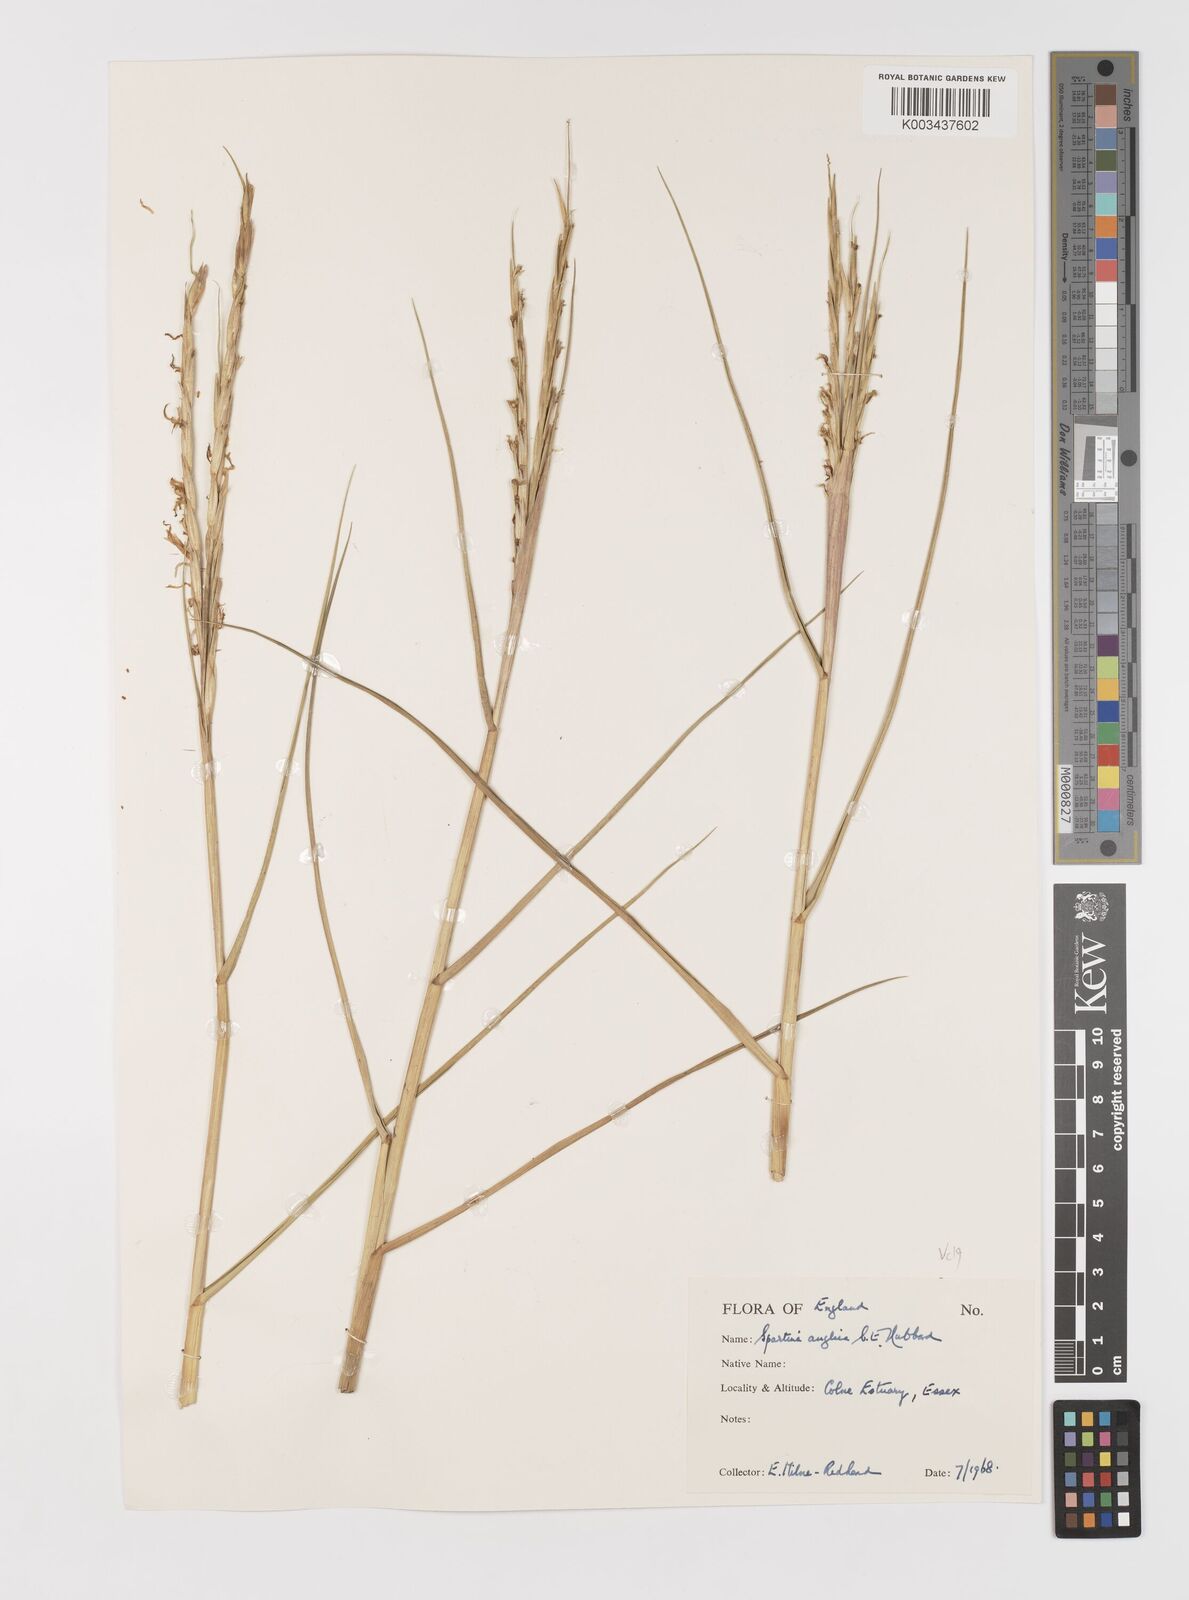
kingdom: Plantae
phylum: Tracheophyta
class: Liliopsida
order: Poales
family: Poaceae
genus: Sporobolus
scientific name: Sporobolus anglicus
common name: English cordgrass
